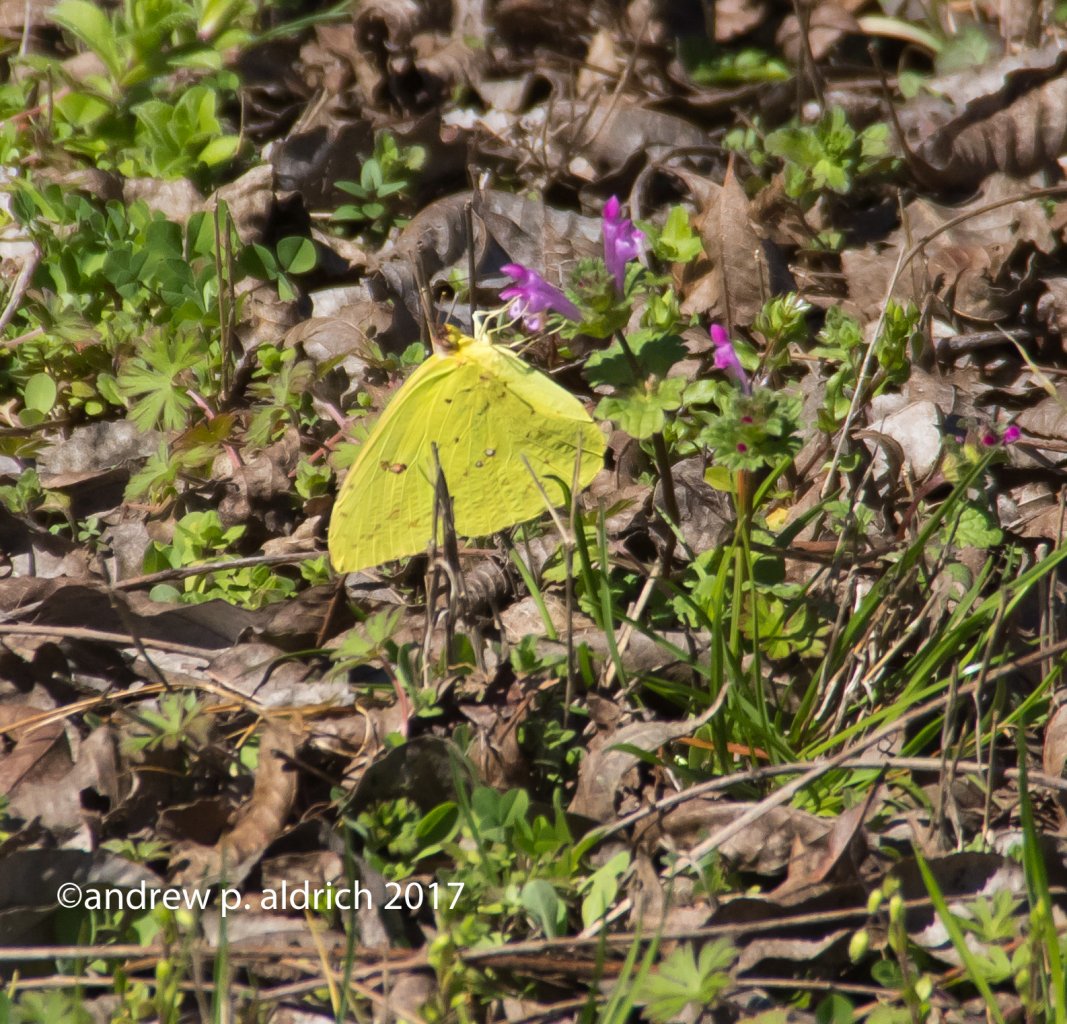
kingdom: Animalia
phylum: Arthropoda
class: Insecta
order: Lepidoptera
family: Pieridae
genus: Phoebis
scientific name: Phoebis sennae
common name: Cloudless Sulphur
